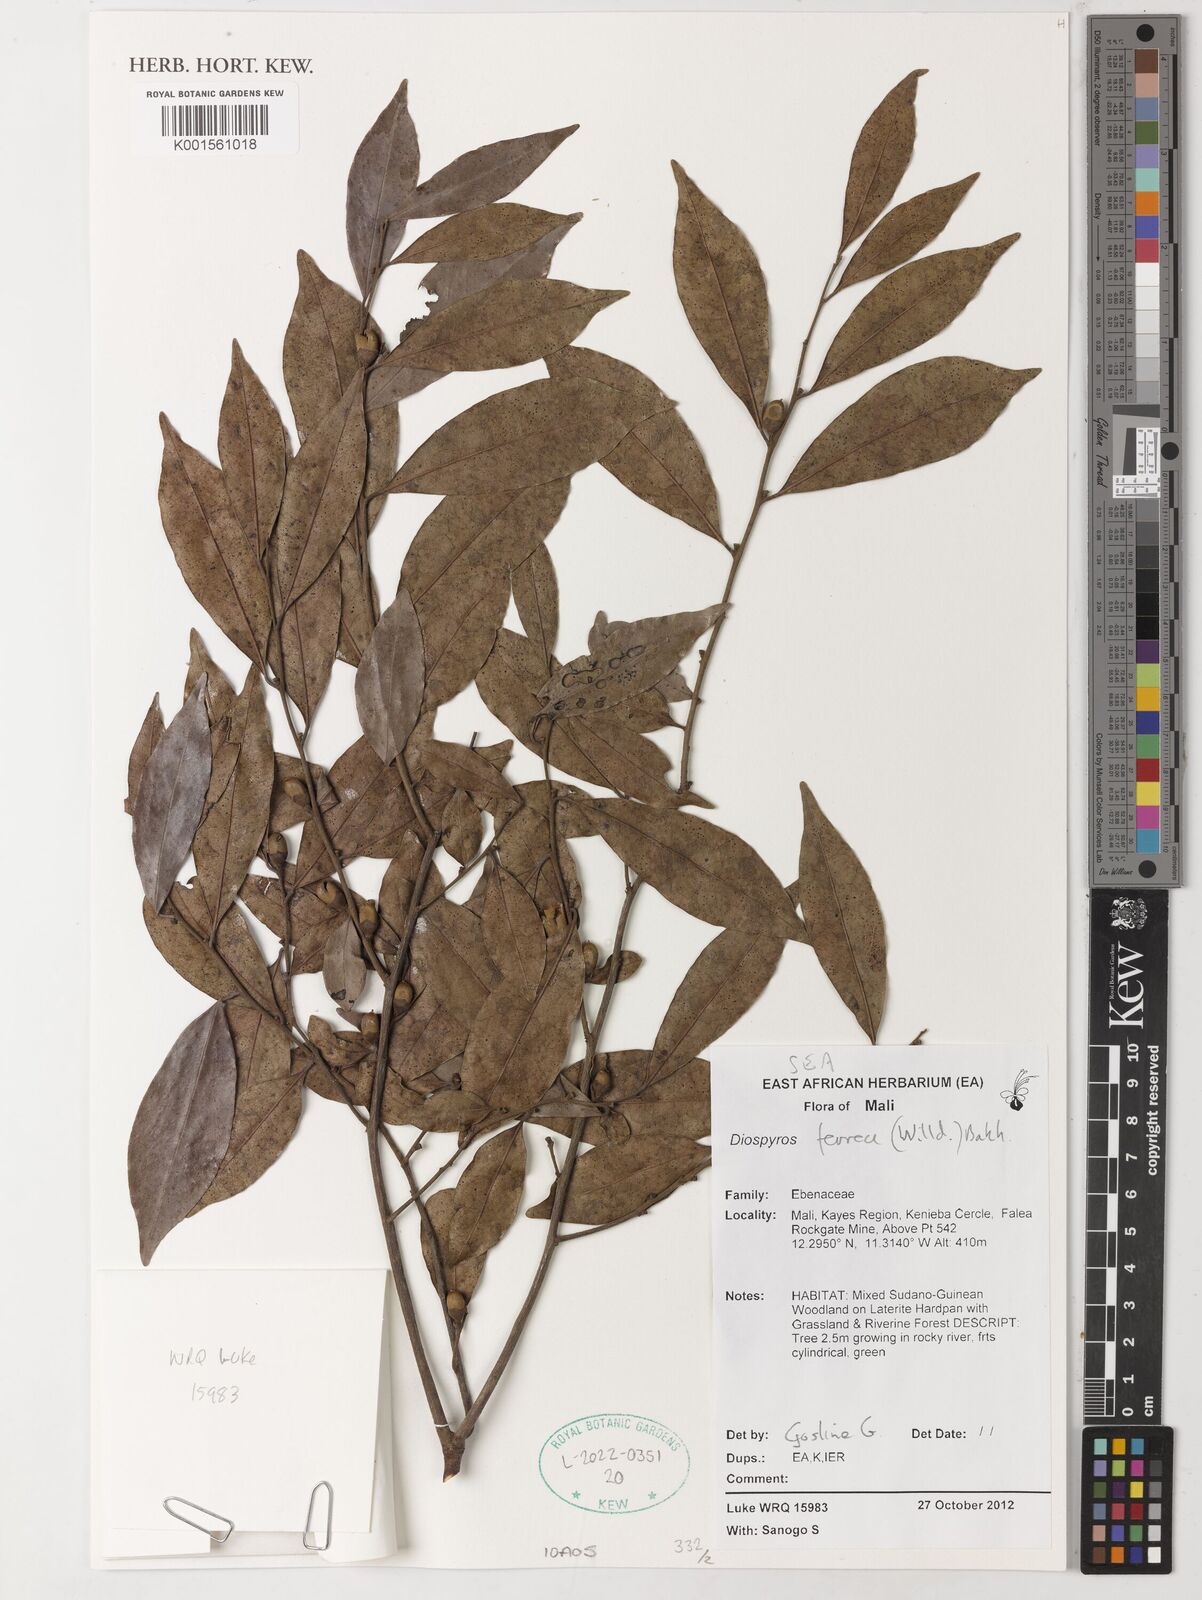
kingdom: Plantae
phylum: Tracheophyta
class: Magnoliopsida
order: Ericales
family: Ebenaceae
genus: Diospyros
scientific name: Diospyros ferrea
